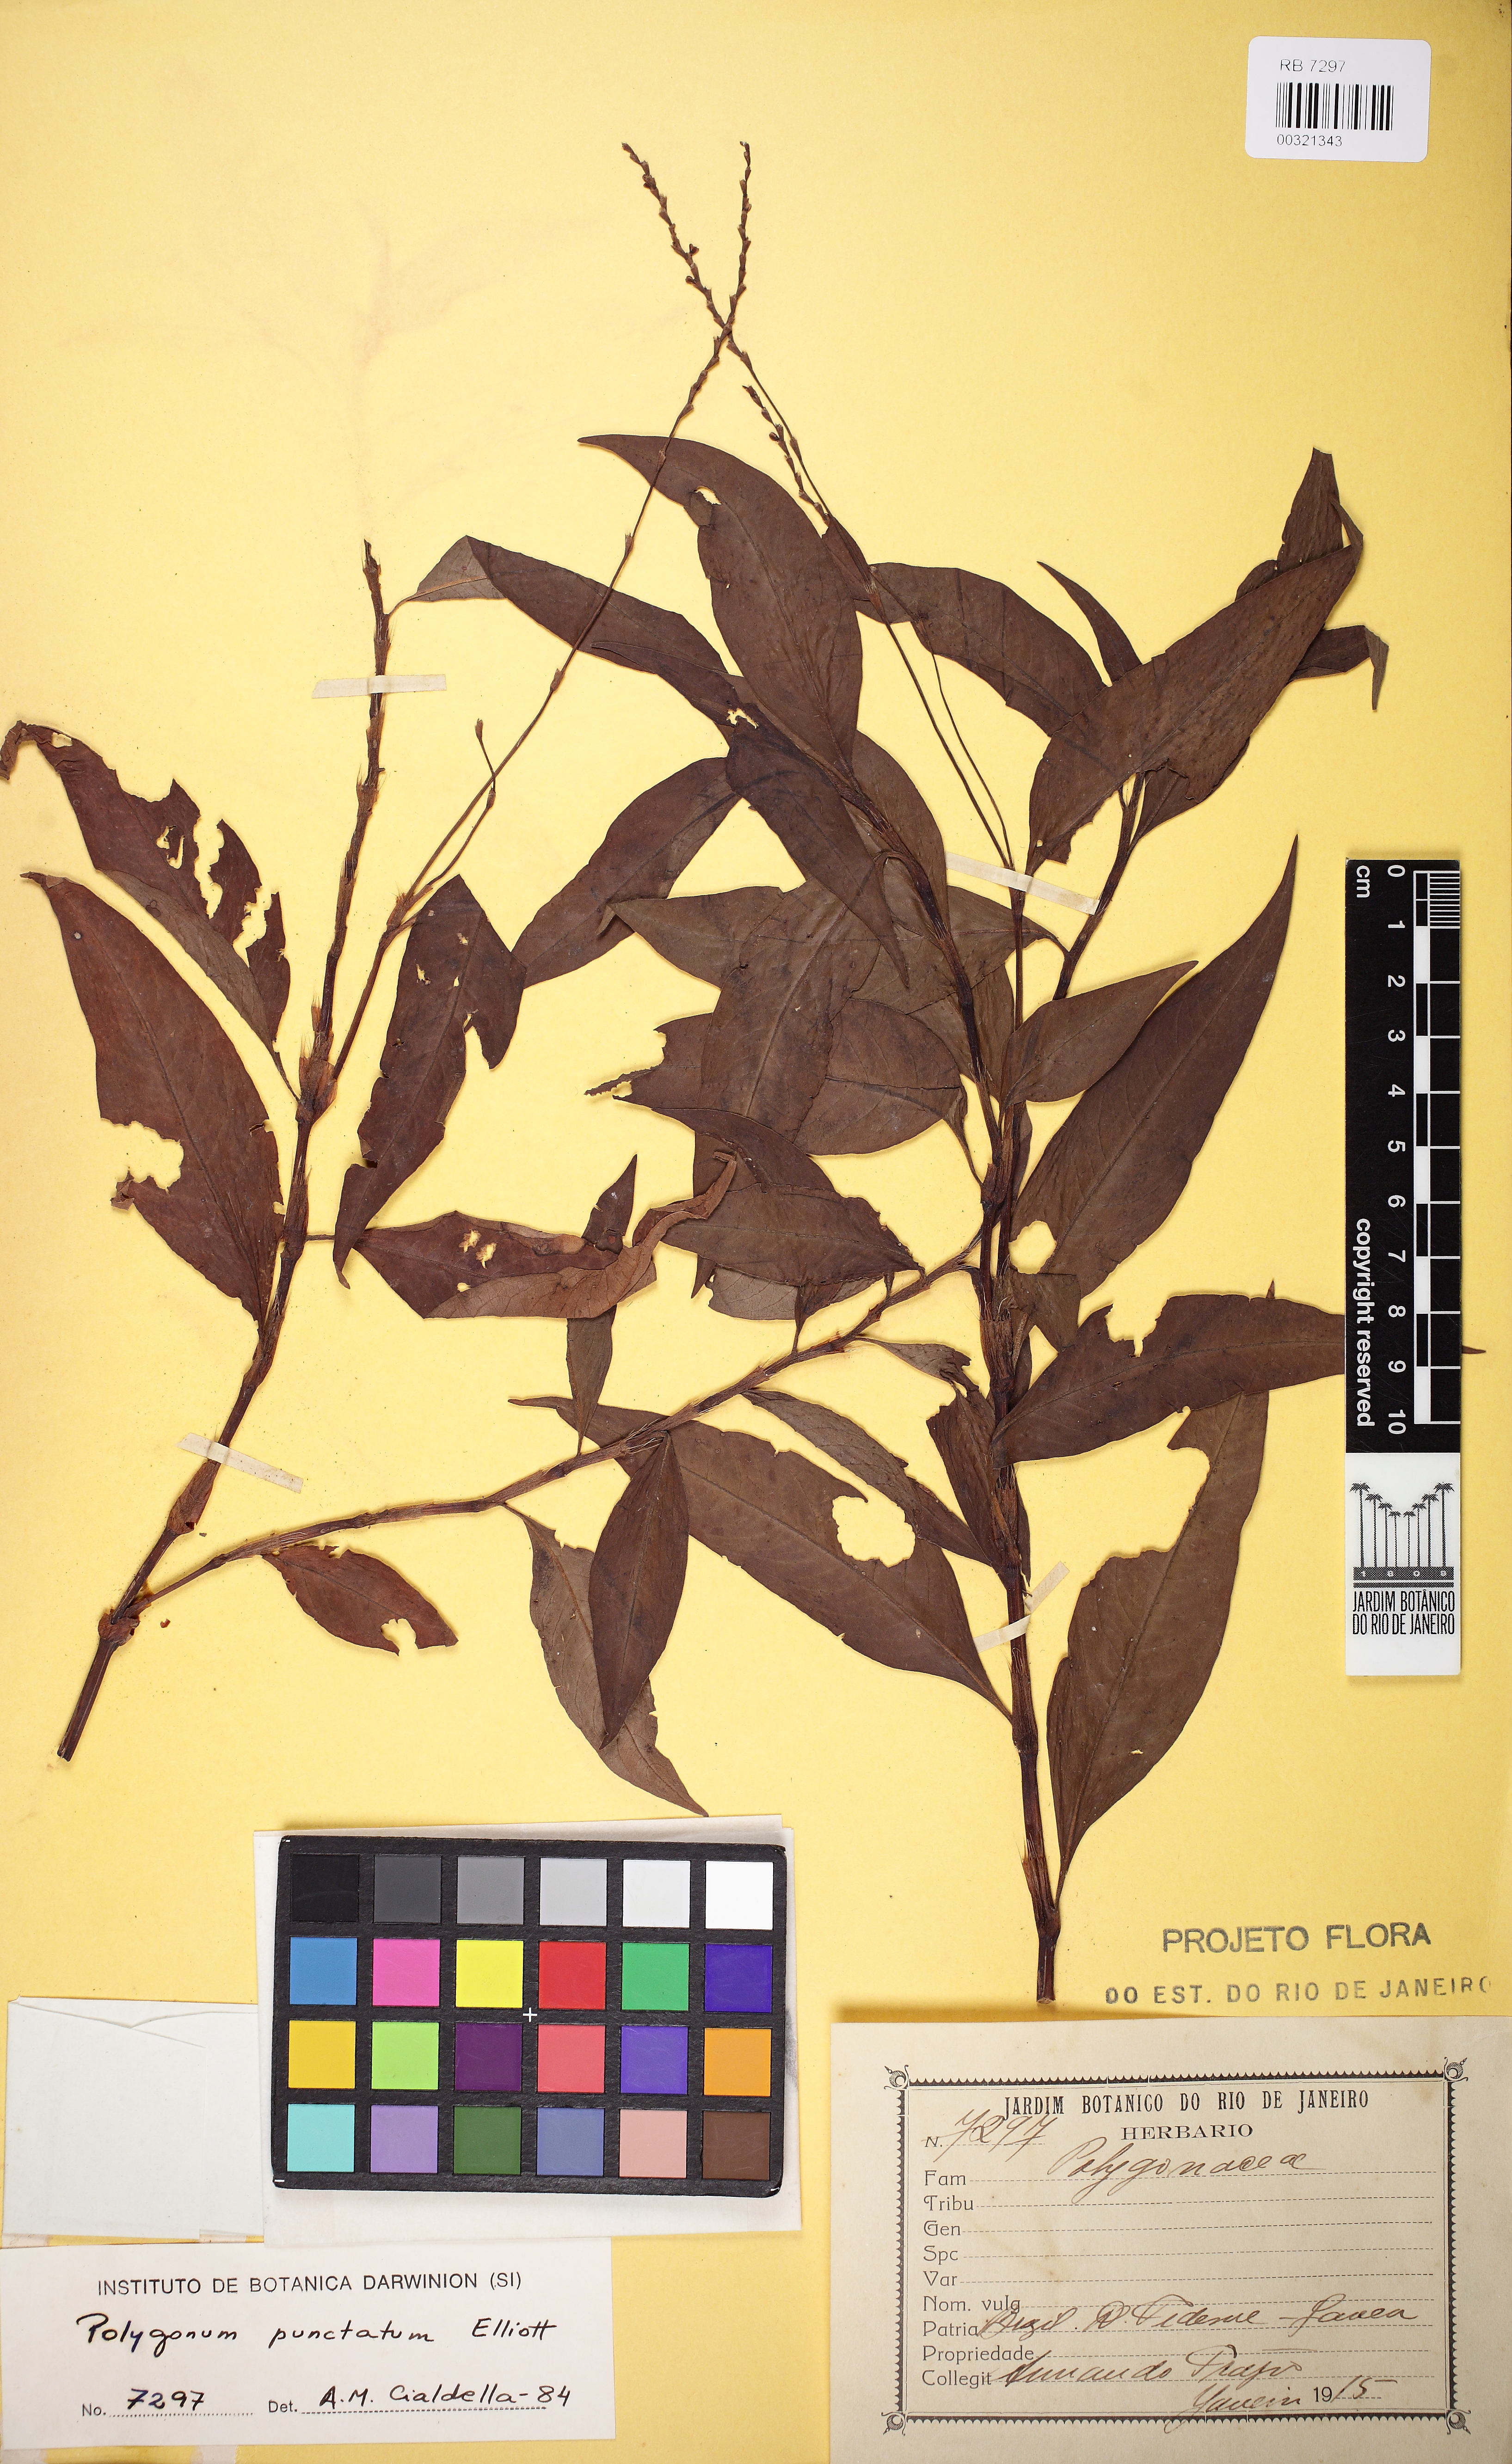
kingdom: Plantae
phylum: Tracheophyta
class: Magnoliopsida
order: Caryophyllales
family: Polygonaceae
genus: Persicaria
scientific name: Persicaria punctata
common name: Dotted smartweed
